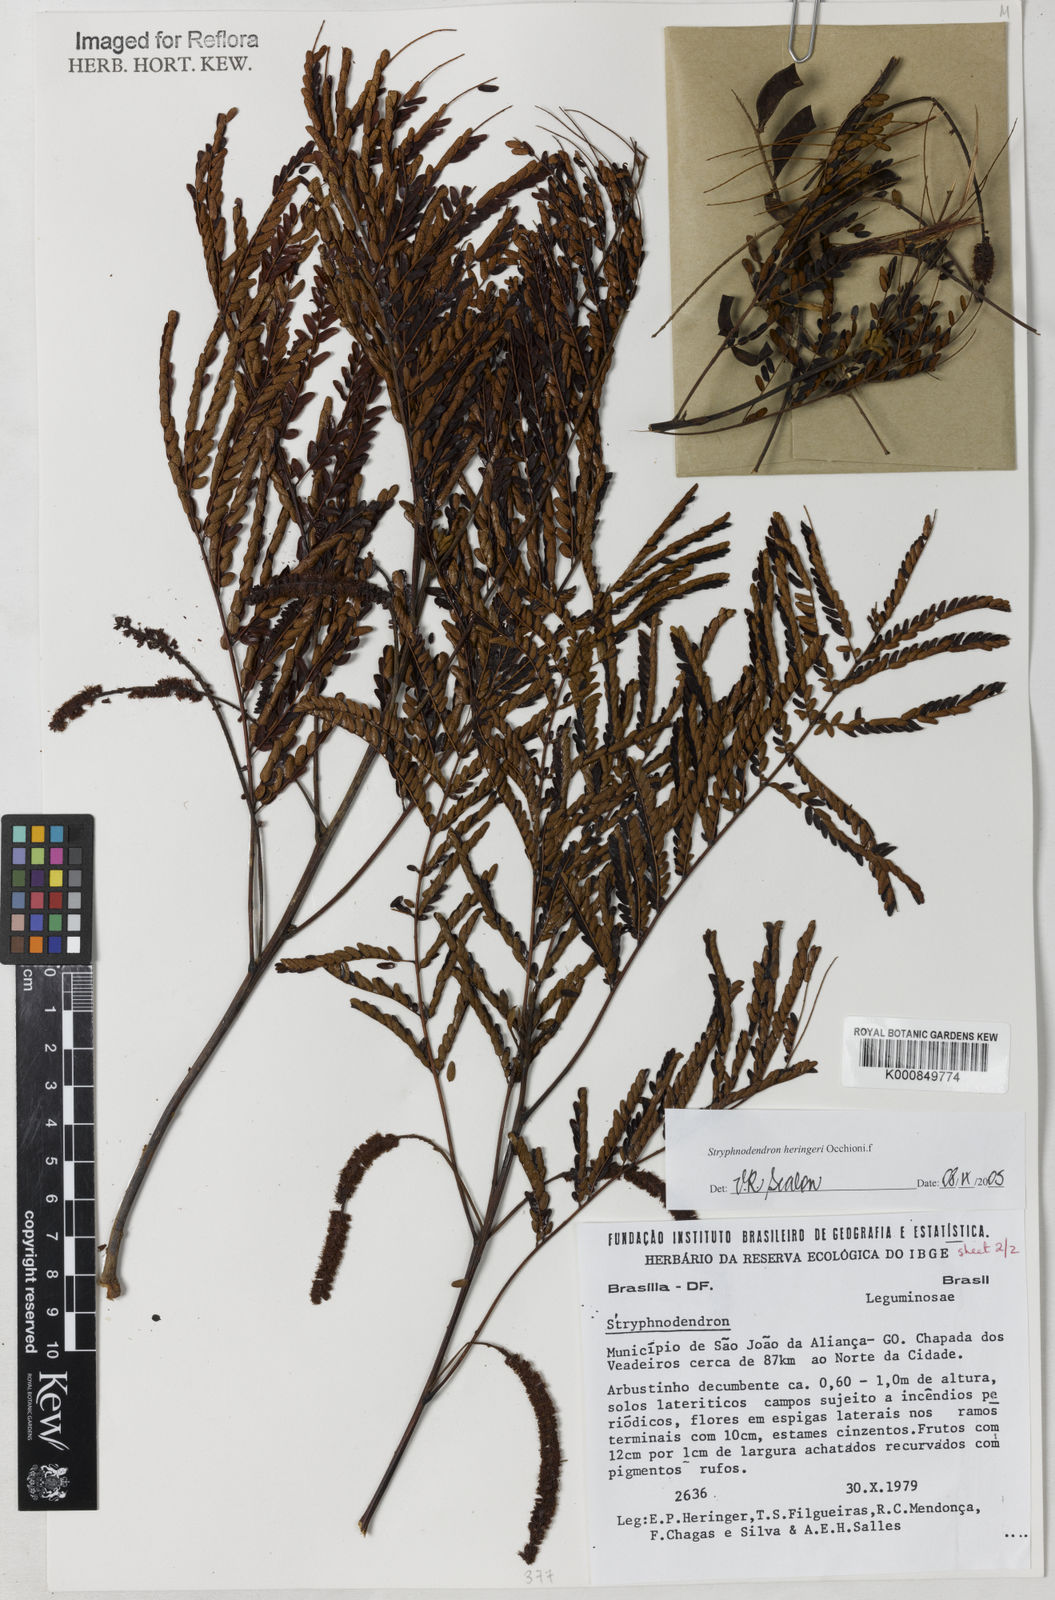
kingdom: Plantae
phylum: Tracheophyta
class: Magnoliopsida
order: Fabales
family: Fabaceae
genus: Stryphnodendron
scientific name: Stryphnodendron heringeri
